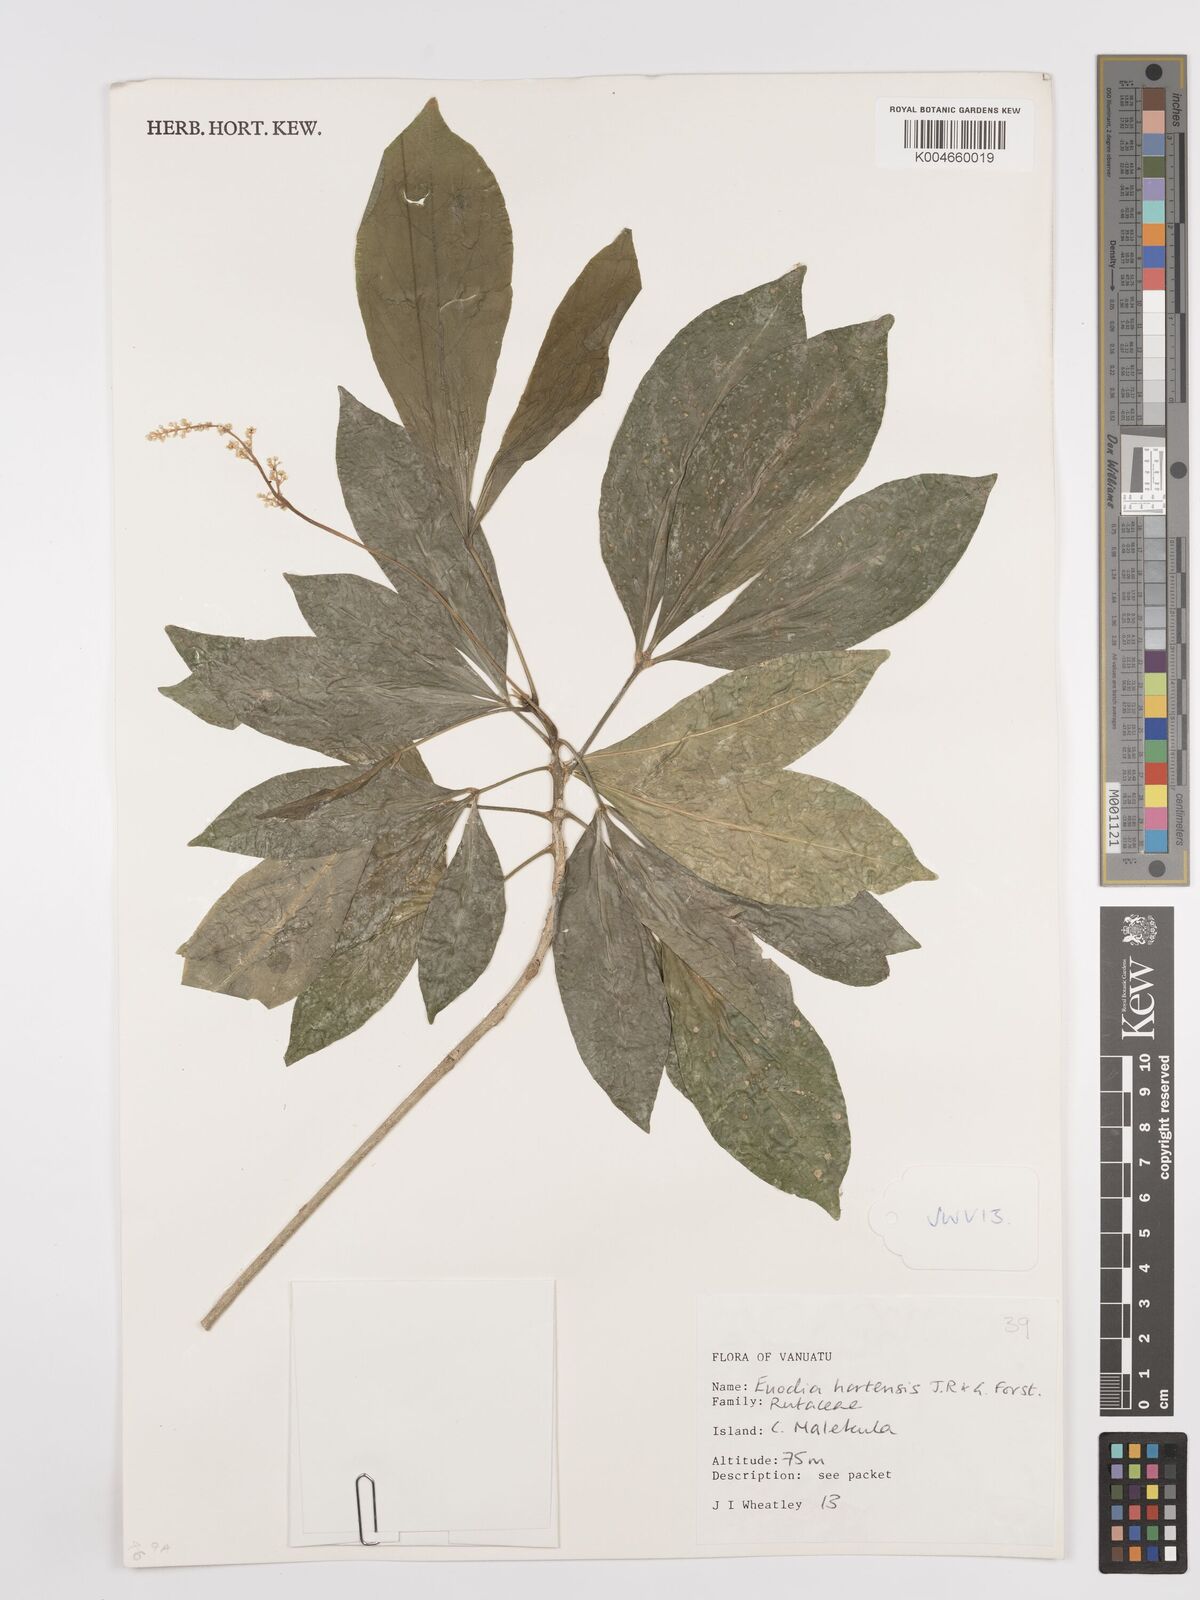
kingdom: Plantae
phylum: Tracheophyta
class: Magnoliopsida
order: Sapindales
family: Rutaceae
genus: Euodia
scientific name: Euodia hortensis
